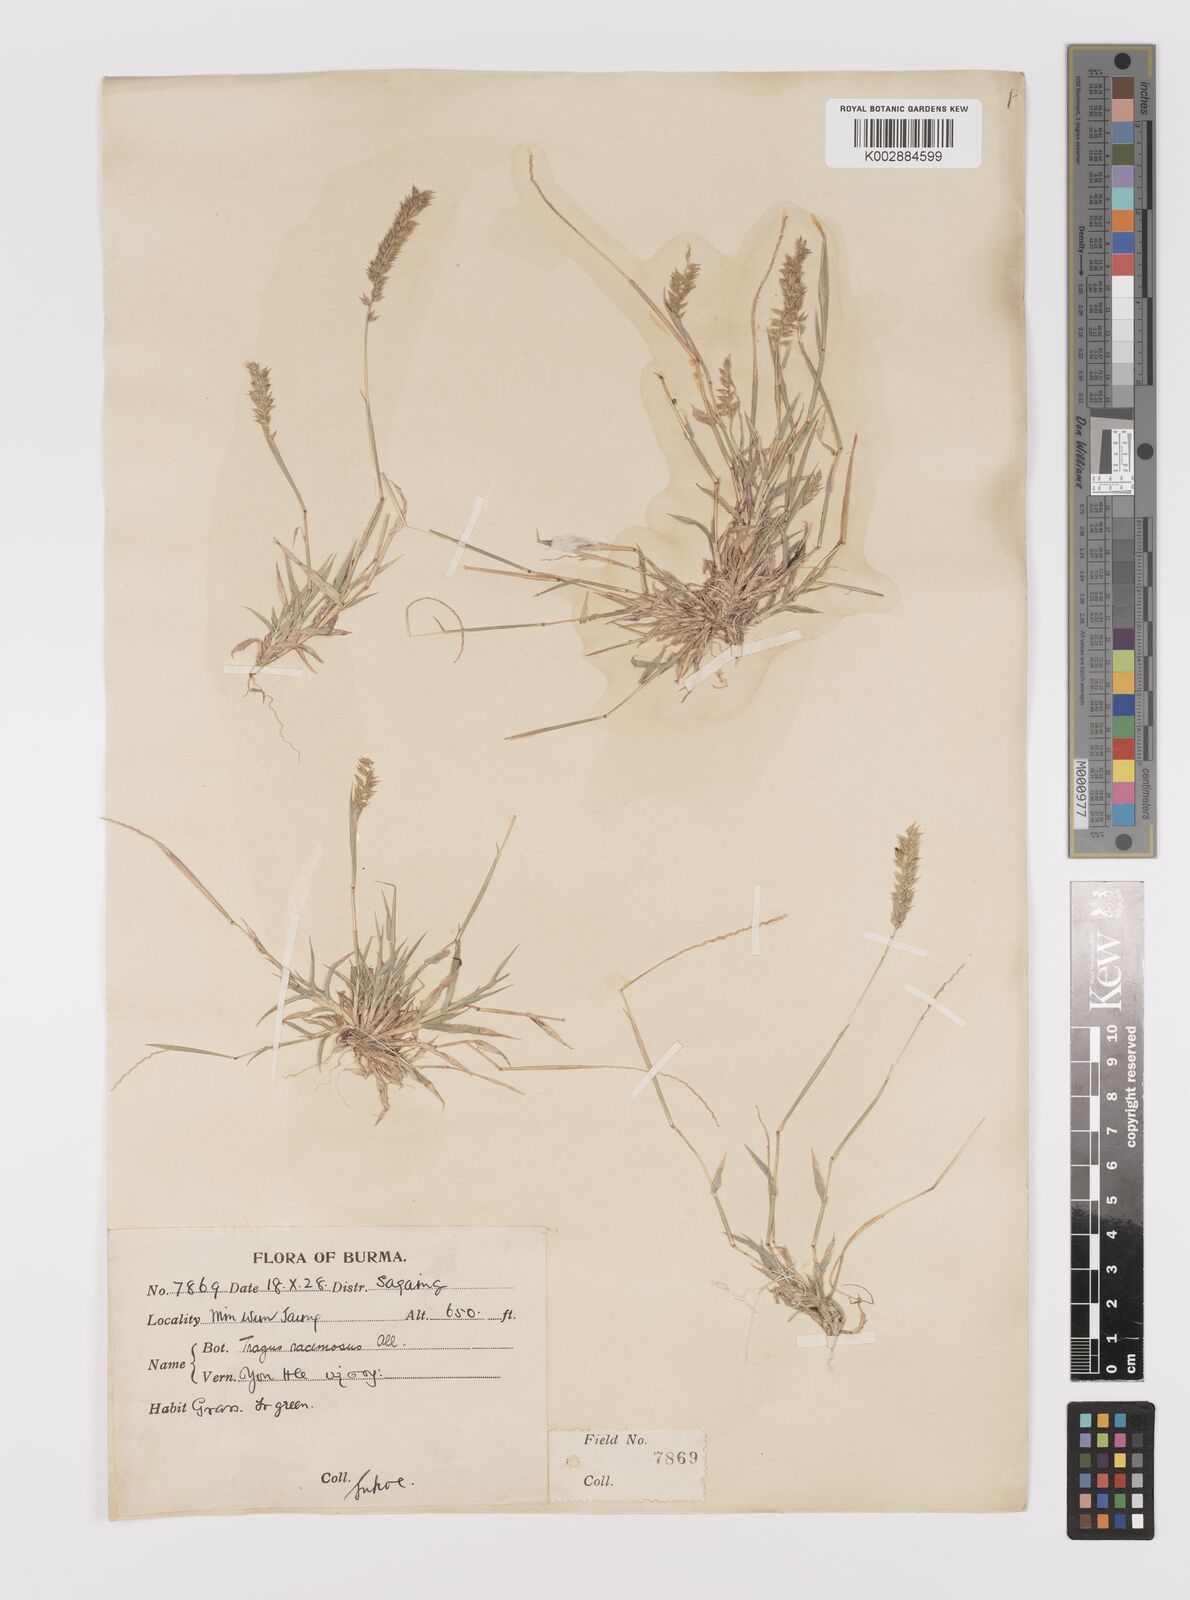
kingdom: Plantae
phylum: Tracheophyta
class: Liliopsida
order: Poales
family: Poaceae
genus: Tragus
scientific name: Tragus mongolorum
